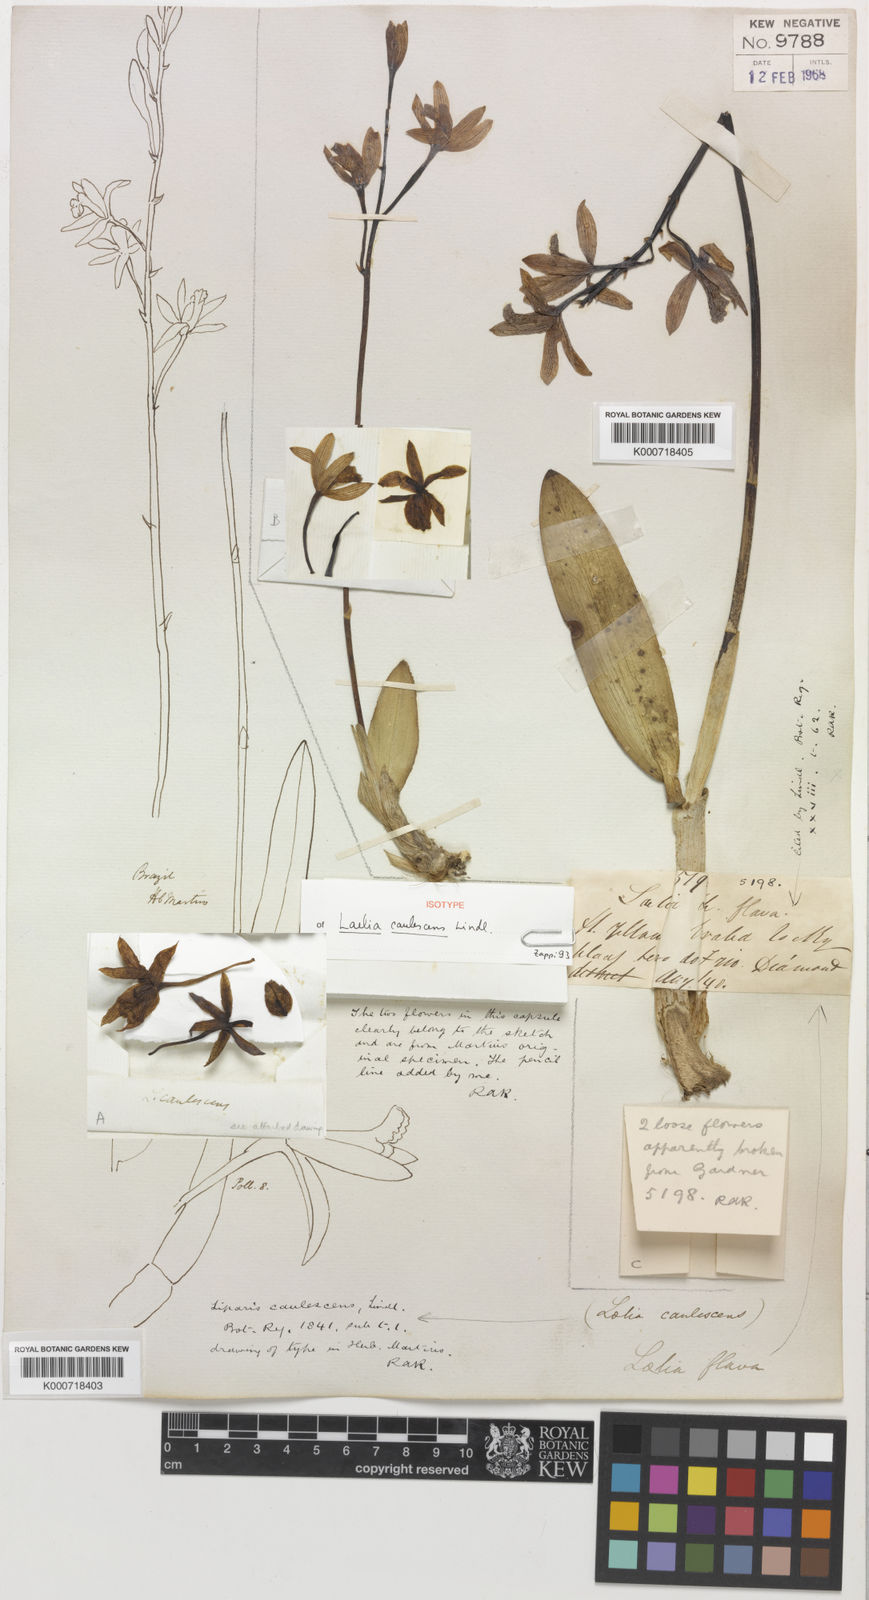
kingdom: Plantae
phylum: Tracheophyta
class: Liliopsida
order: Asparagales
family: Orchidaceae
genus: Cattleya
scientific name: Cattleya crispata
